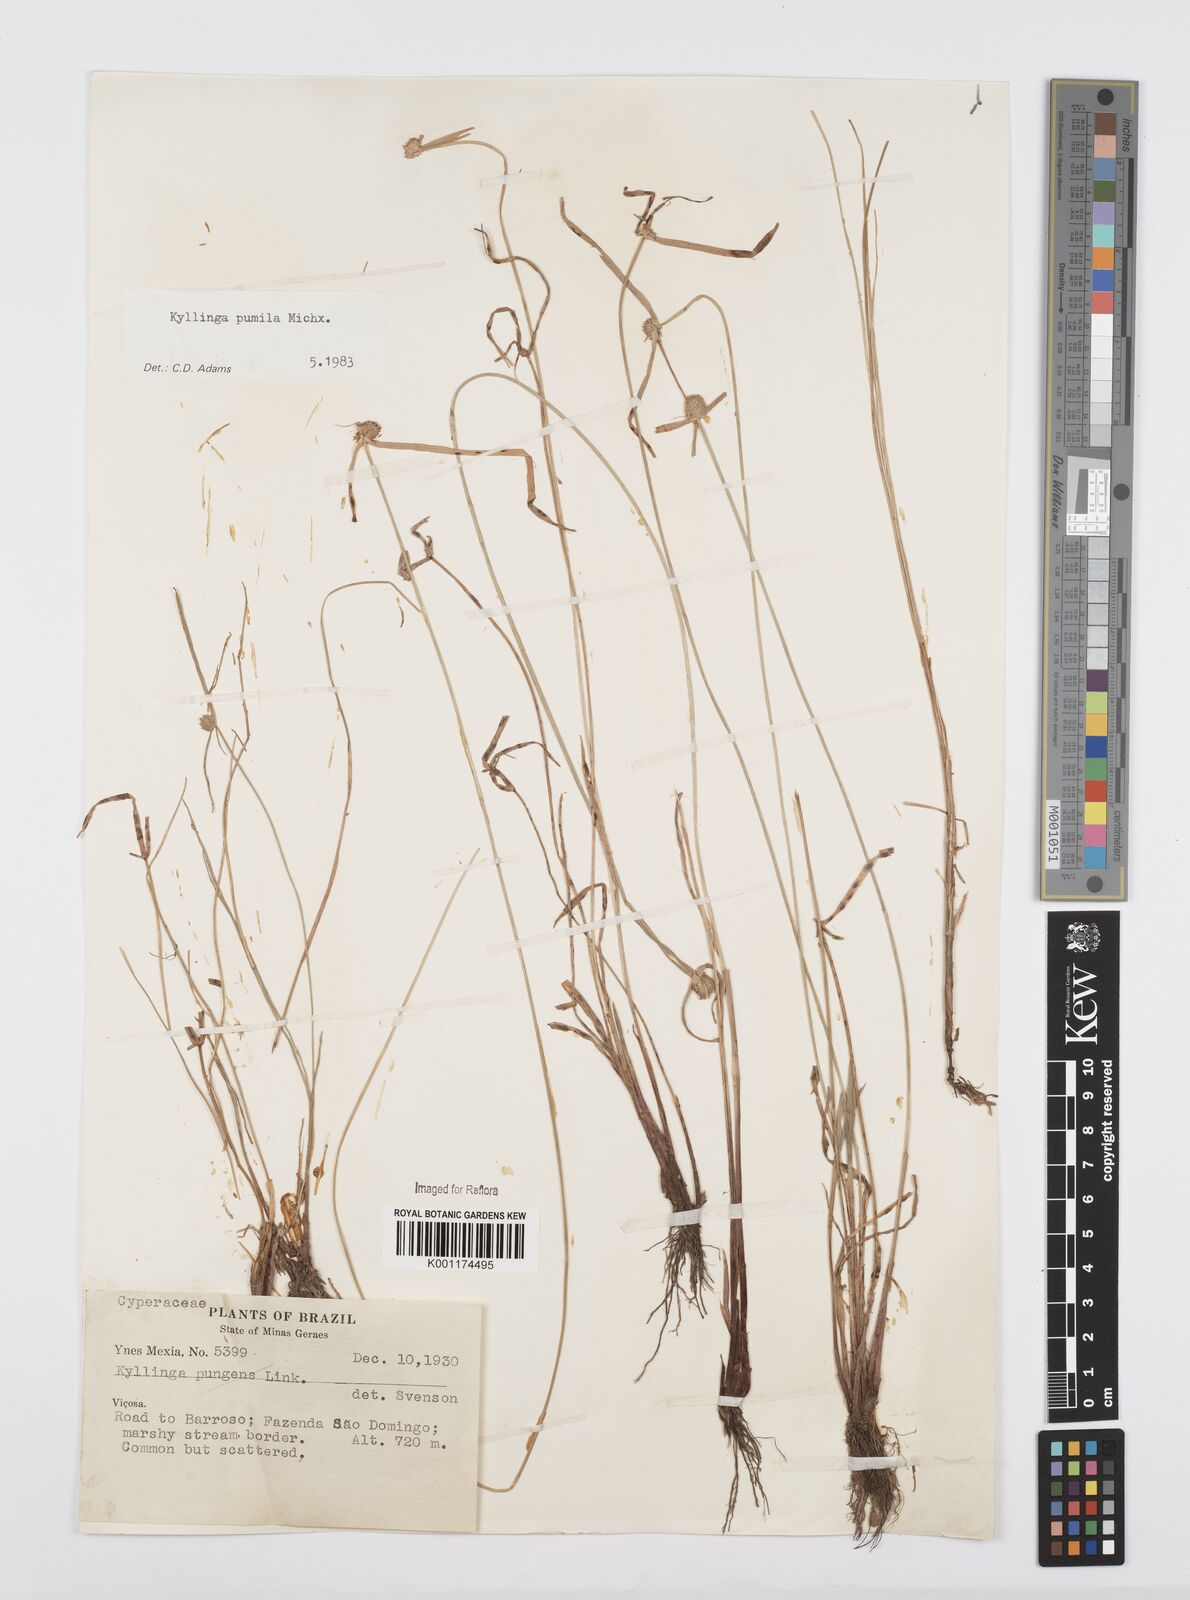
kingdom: Plantae
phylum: Tracheophyta
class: Liliopsida
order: Poales
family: Cyperaceae
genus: Cyperus
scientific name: Cyperus
